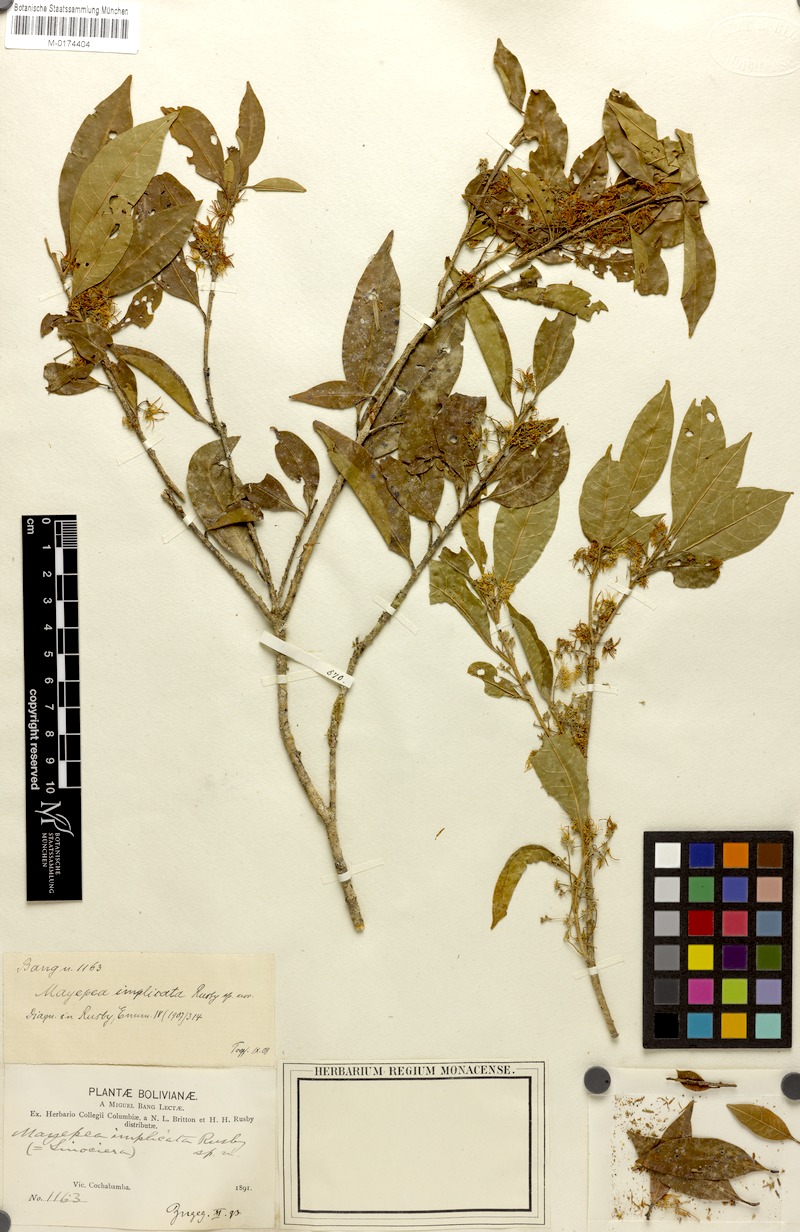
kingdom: Plantae
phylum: Tracheophyta
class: Magnoliopsida
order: Lamiales
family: Oleaceae
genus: Chionanthus
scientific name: Chionanthus implicatus
